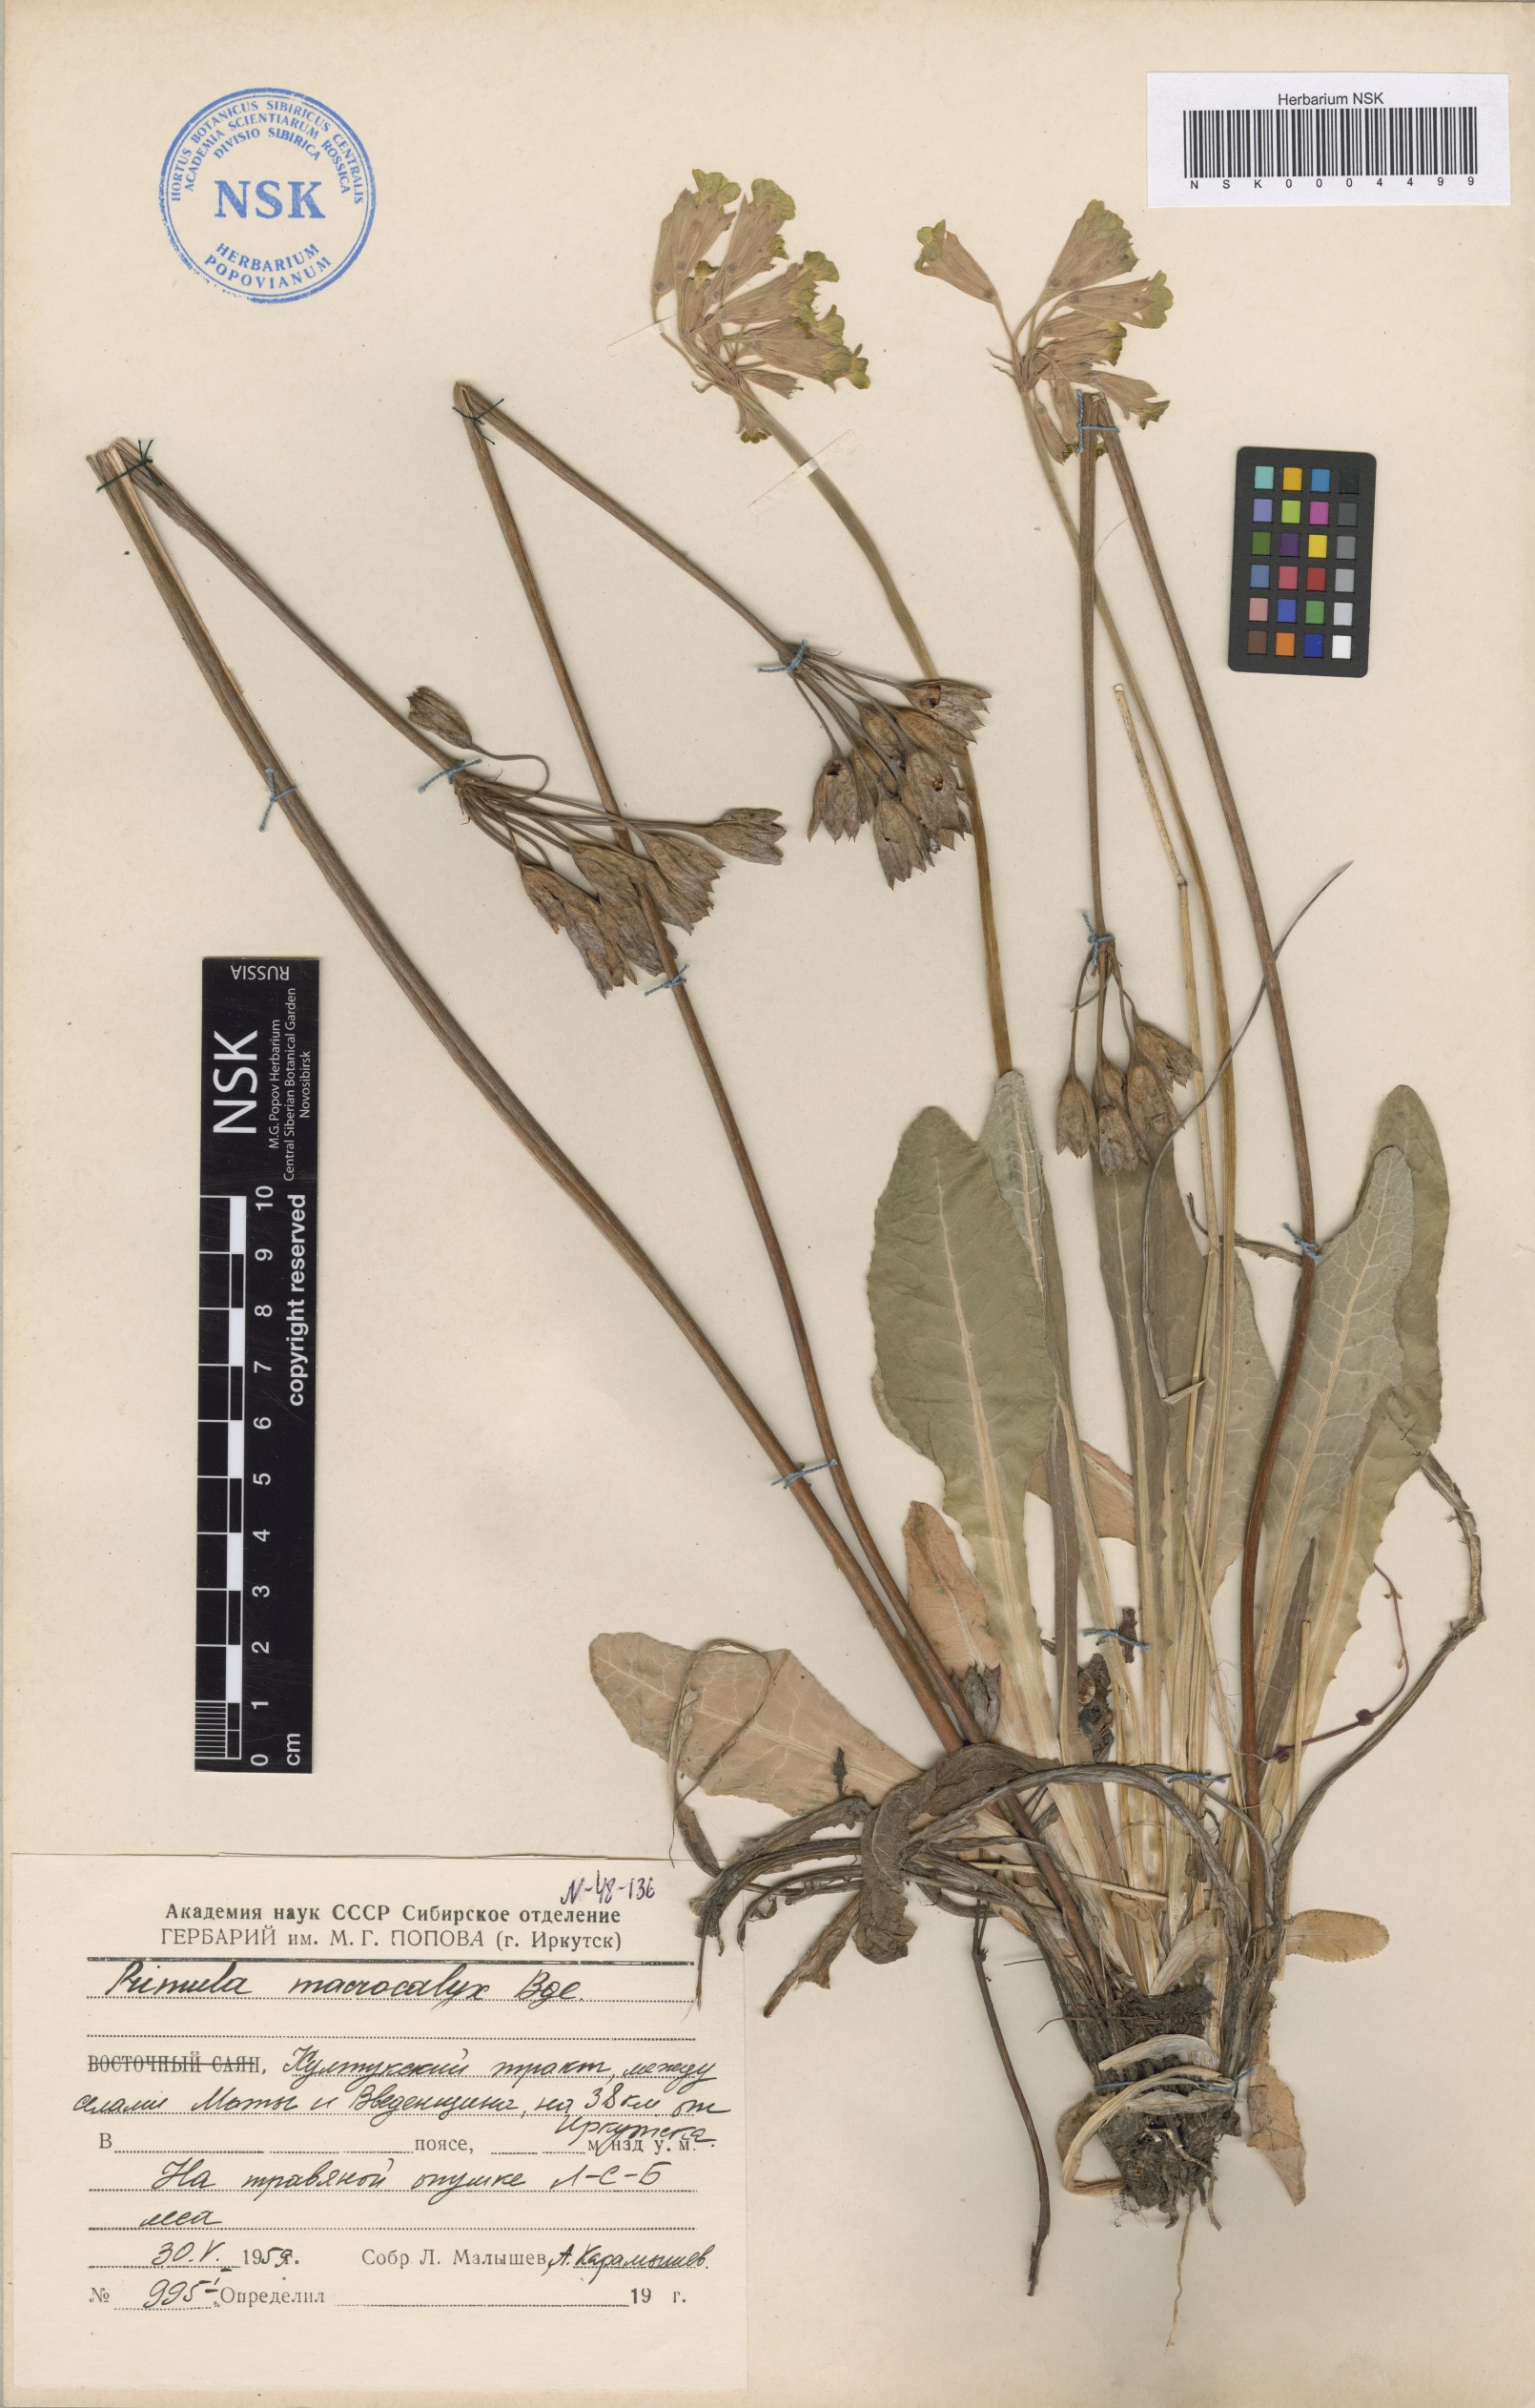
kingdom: Plantae
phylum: Tracheophyta
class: Magnoliopsida
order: Ericales
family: Primulaceae
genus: Primula
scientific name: Primula veris
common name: Cowslip
